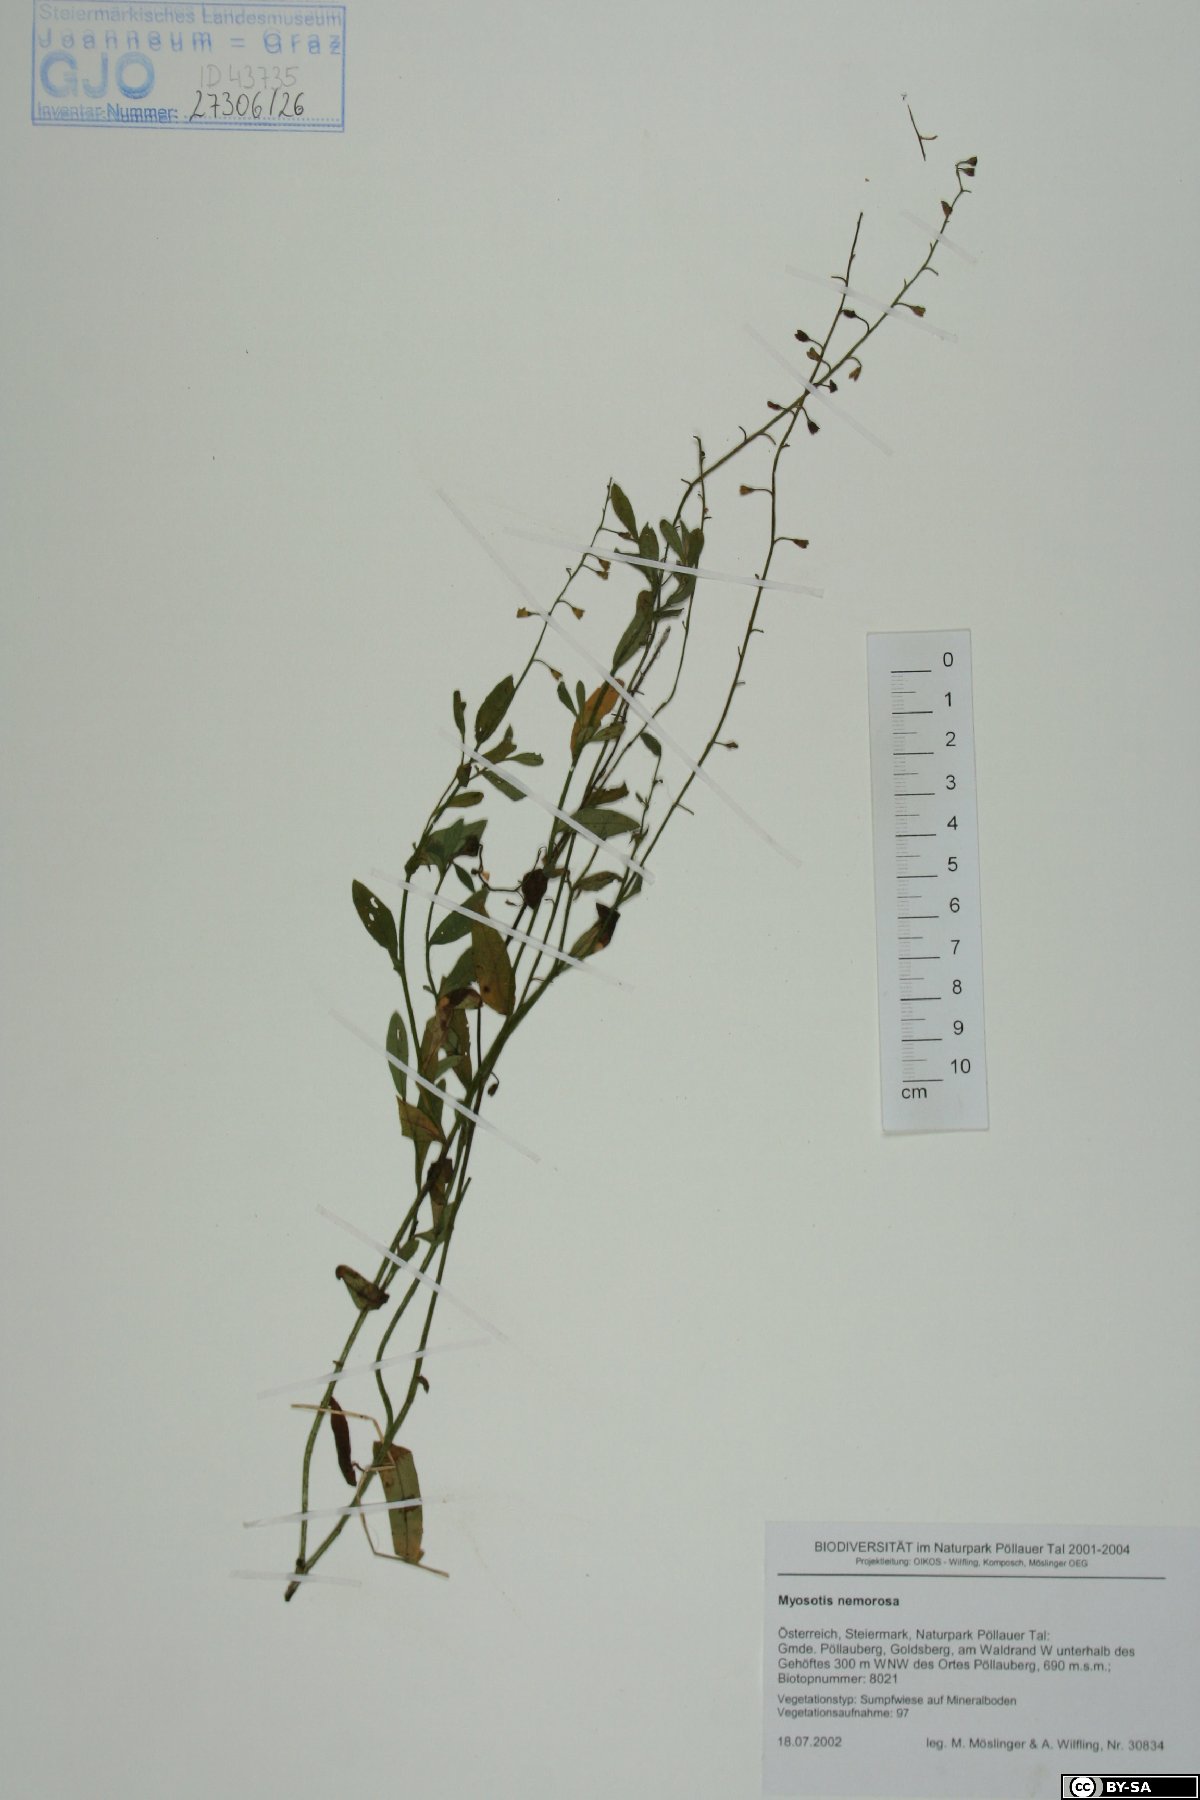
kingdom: Plantae
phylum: Tracheophyta
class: Magnoliopsida
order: Boraginales
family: Boraginaceae
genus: Myosotis
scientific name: Myosotis nemorosa
